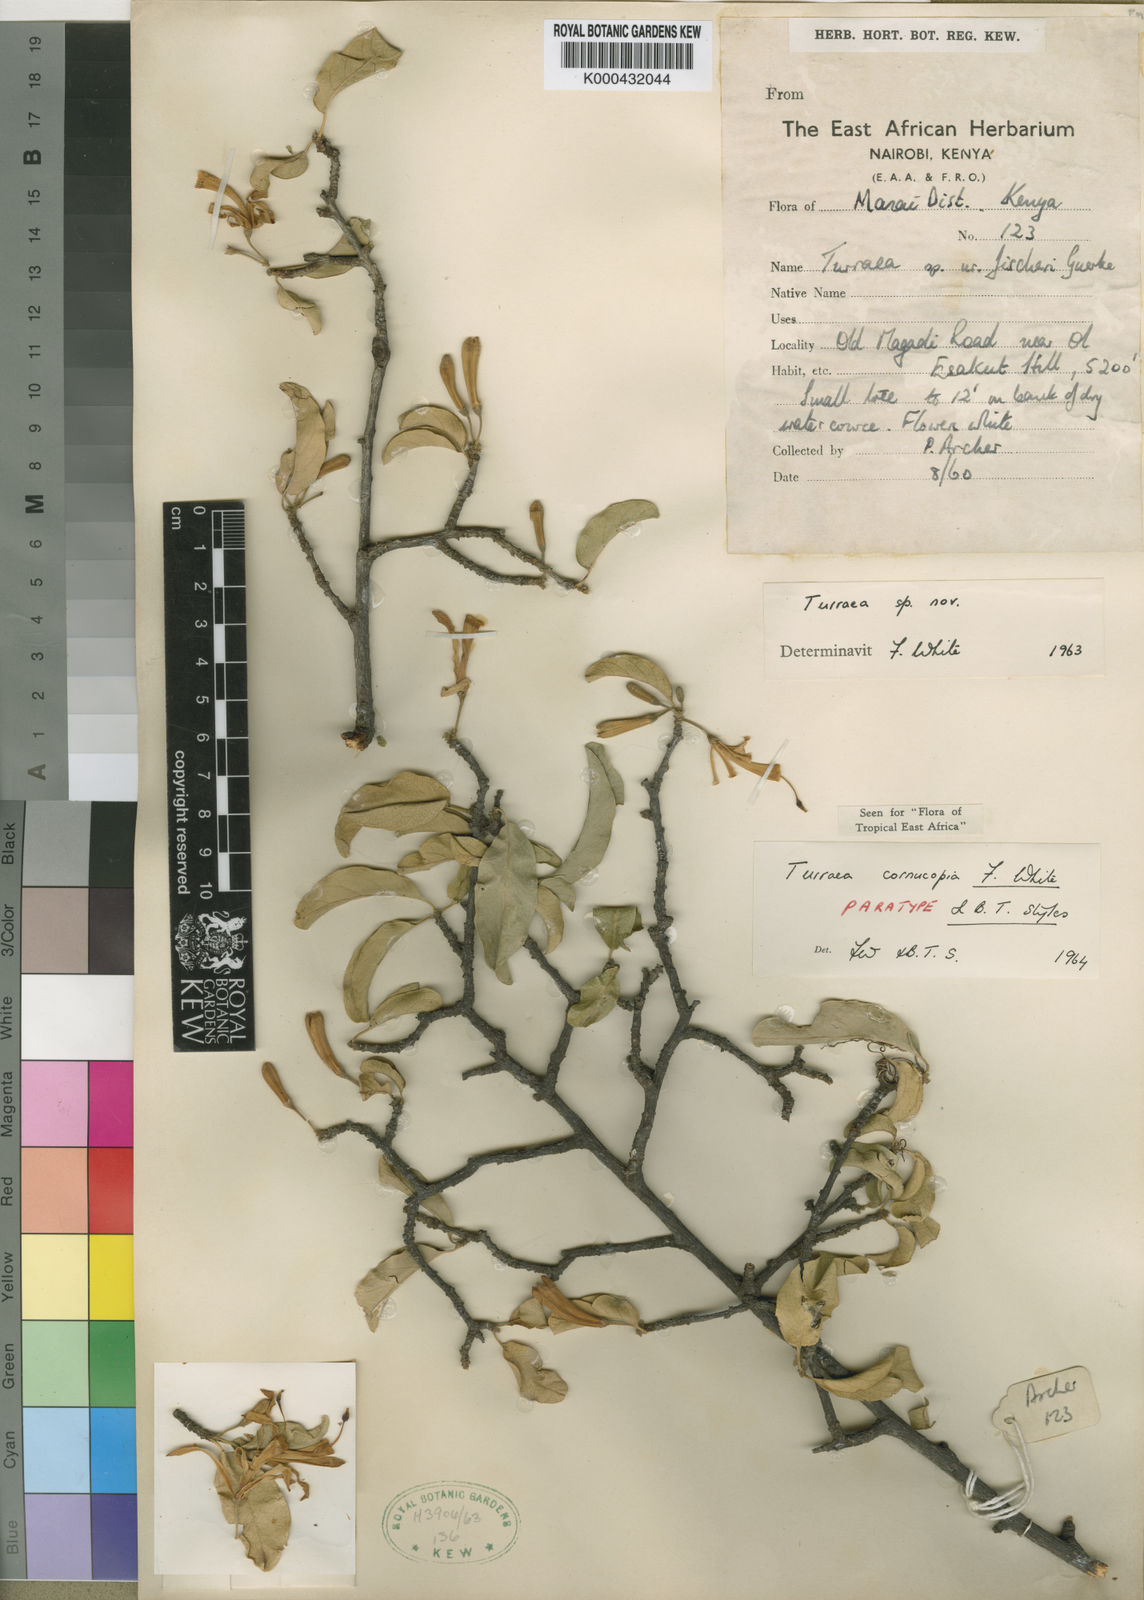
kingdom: Plantae
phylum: Tracheophyta
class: Magnoliopsida
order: Sapindales
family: Meliaceae
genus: Turraea
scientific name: Turraea cornucopia
